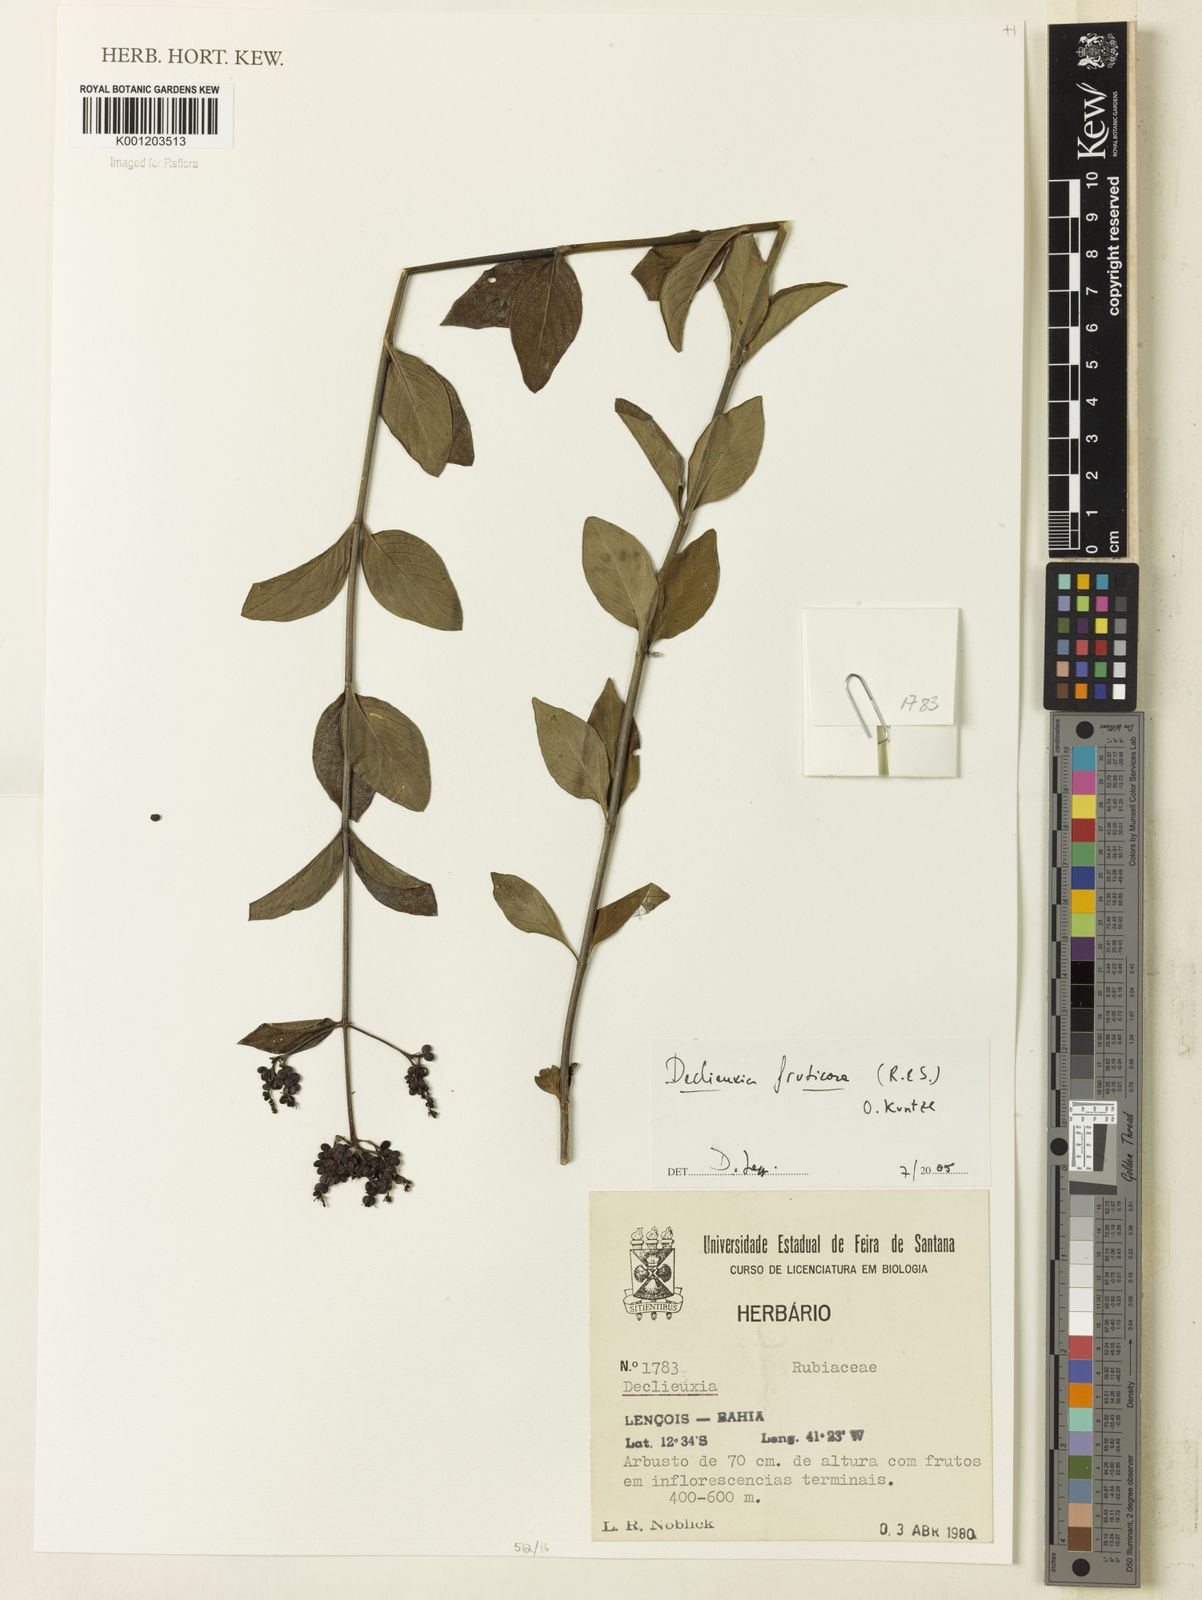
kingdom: Plantae
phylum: Tracheophyta
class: Magnoliopsida
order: Gentianales
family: Rubiaceae
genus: Declieuxia
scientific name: Declieuxia fruticosa
